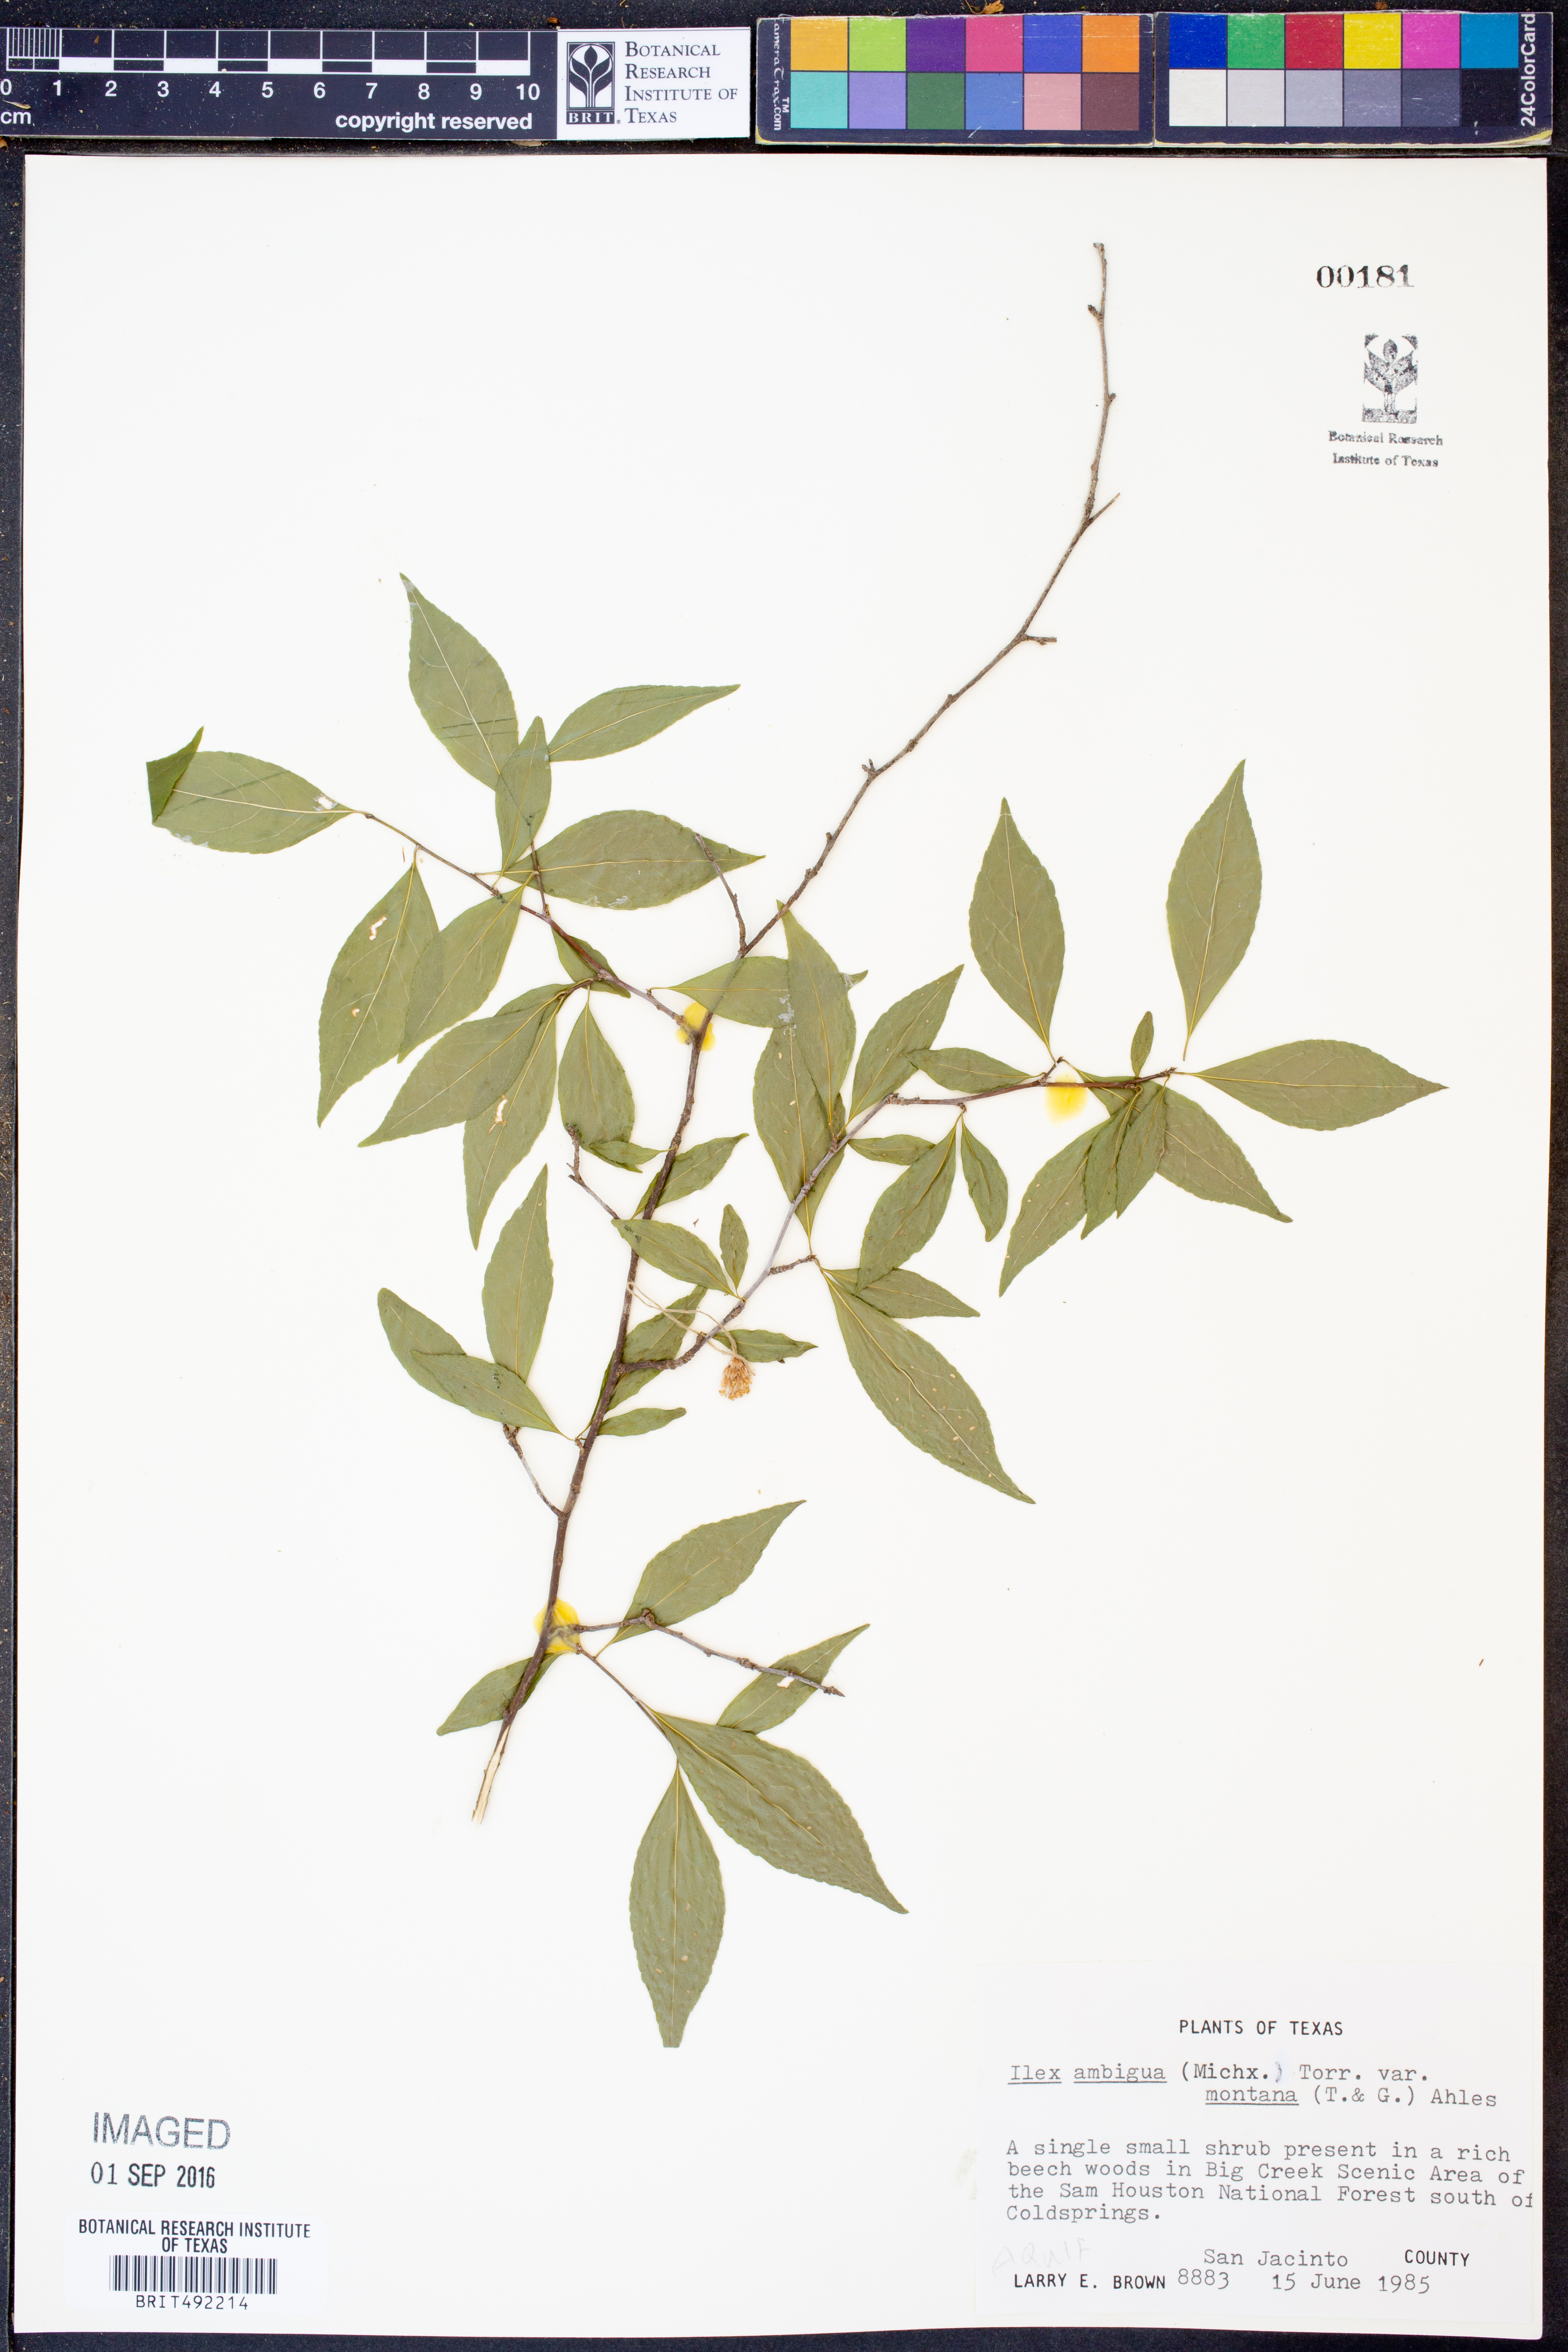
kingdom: Plantae
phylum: Tracheophyta
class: Magnoliopsida
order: Aquifoliales
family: Aquifoliaceae
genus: Ilex
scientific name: Ilex montana
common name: Mountain winterberry
